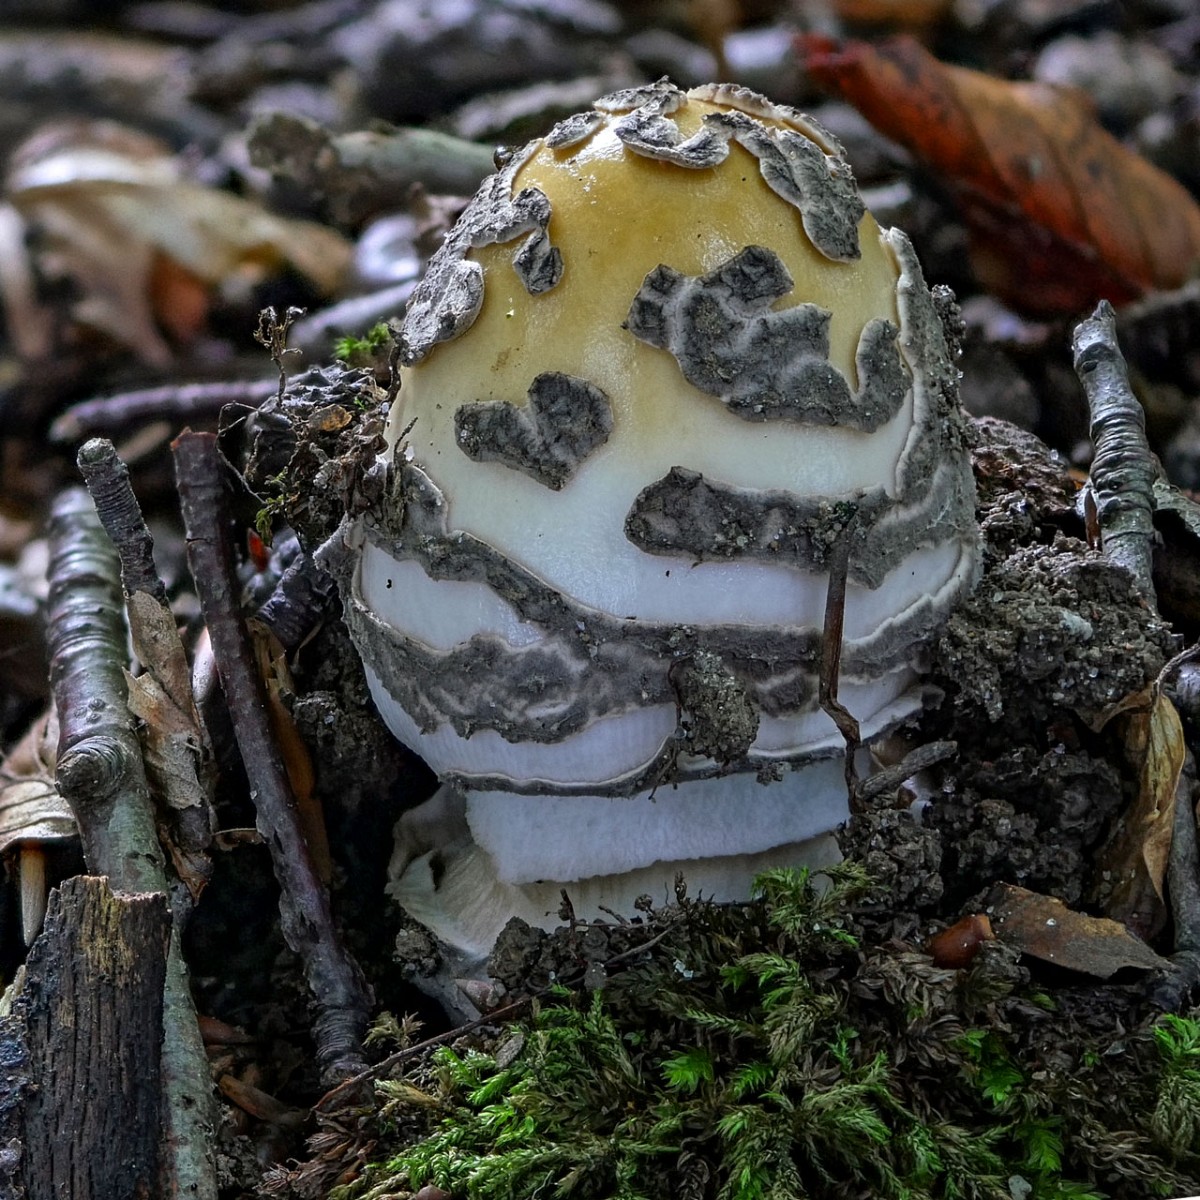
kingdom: Fungi
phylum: Basidiomycota
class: Agaricomycetes
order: Agaricales
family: Amanitaceae
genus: Amanita
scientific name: Amanita ceciliae
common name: stor kam-fluesvamp
